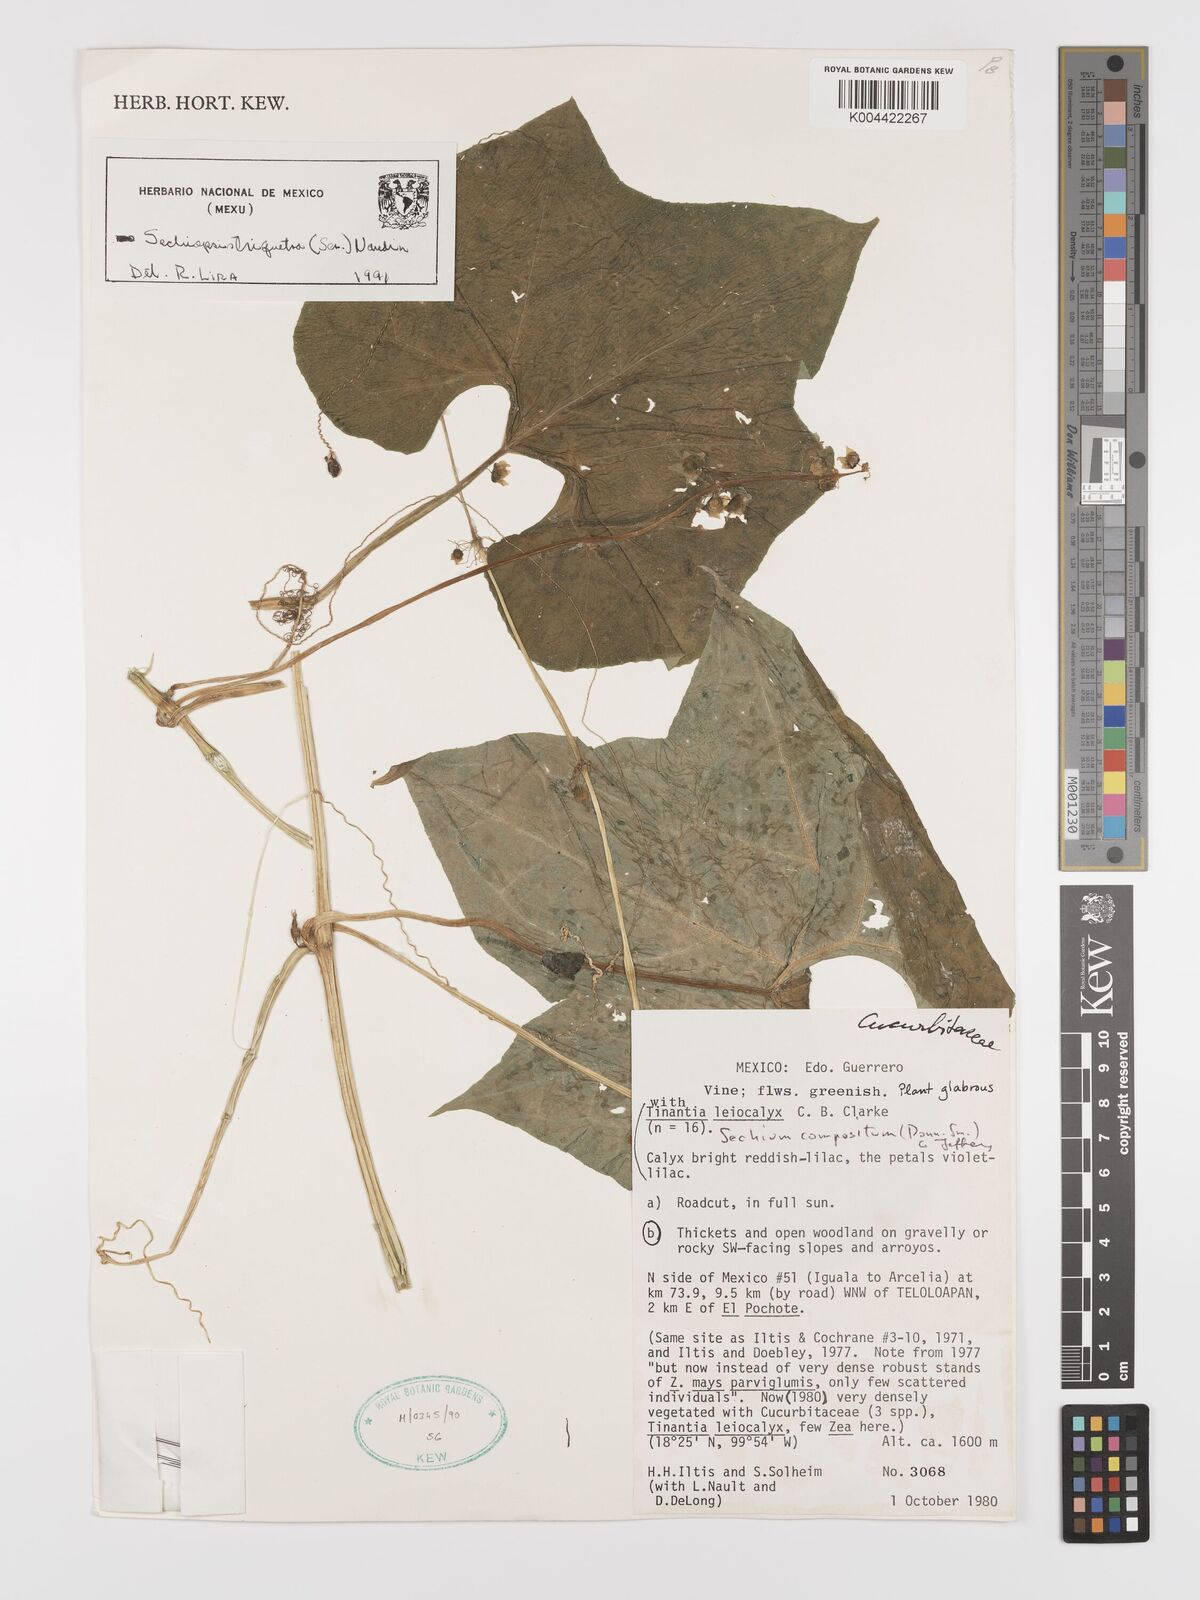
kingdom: Plantae
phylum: Tracheophyta
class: Magnoliopsida
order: Cucurbitales
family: Cucurbitaceae
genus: Sechiopsis
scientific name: Sechiopsis triqueter
